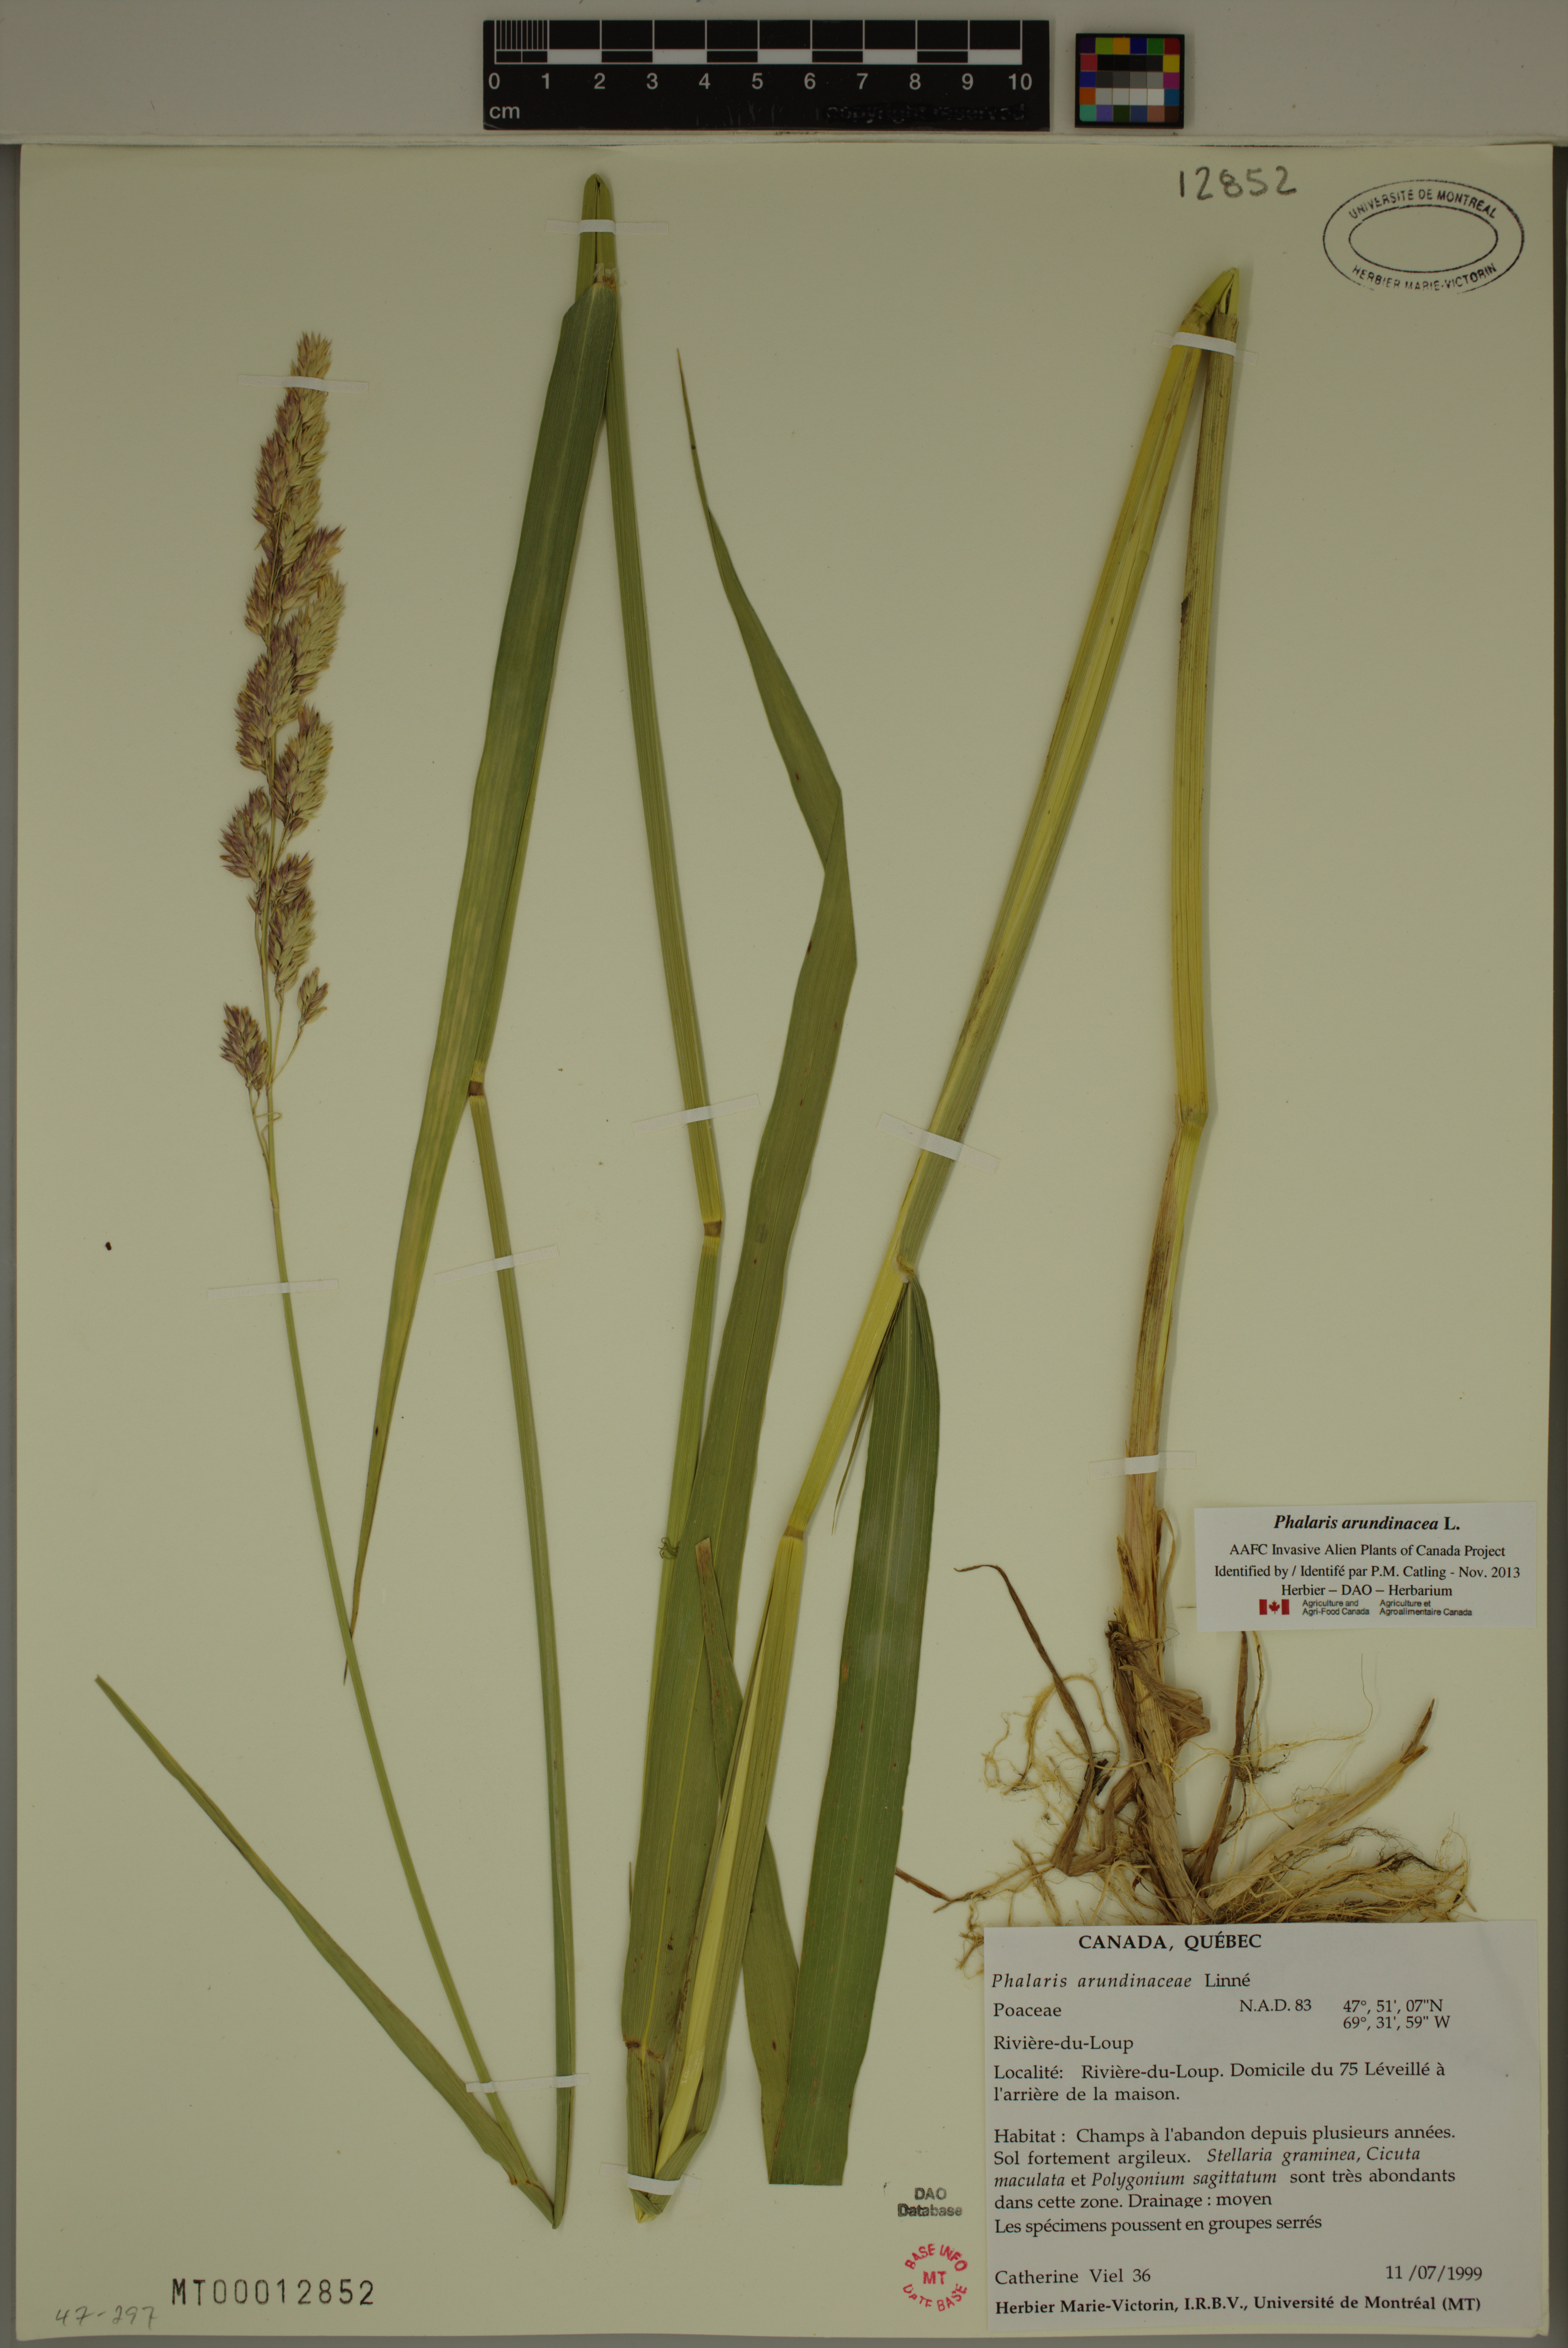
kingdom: Plantae
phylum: Tracheophyta
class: Liliopsida
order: Poales
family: Poaceae
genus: Phalaris
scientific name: Phalaris arundinacea
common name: Reed canary-grass
